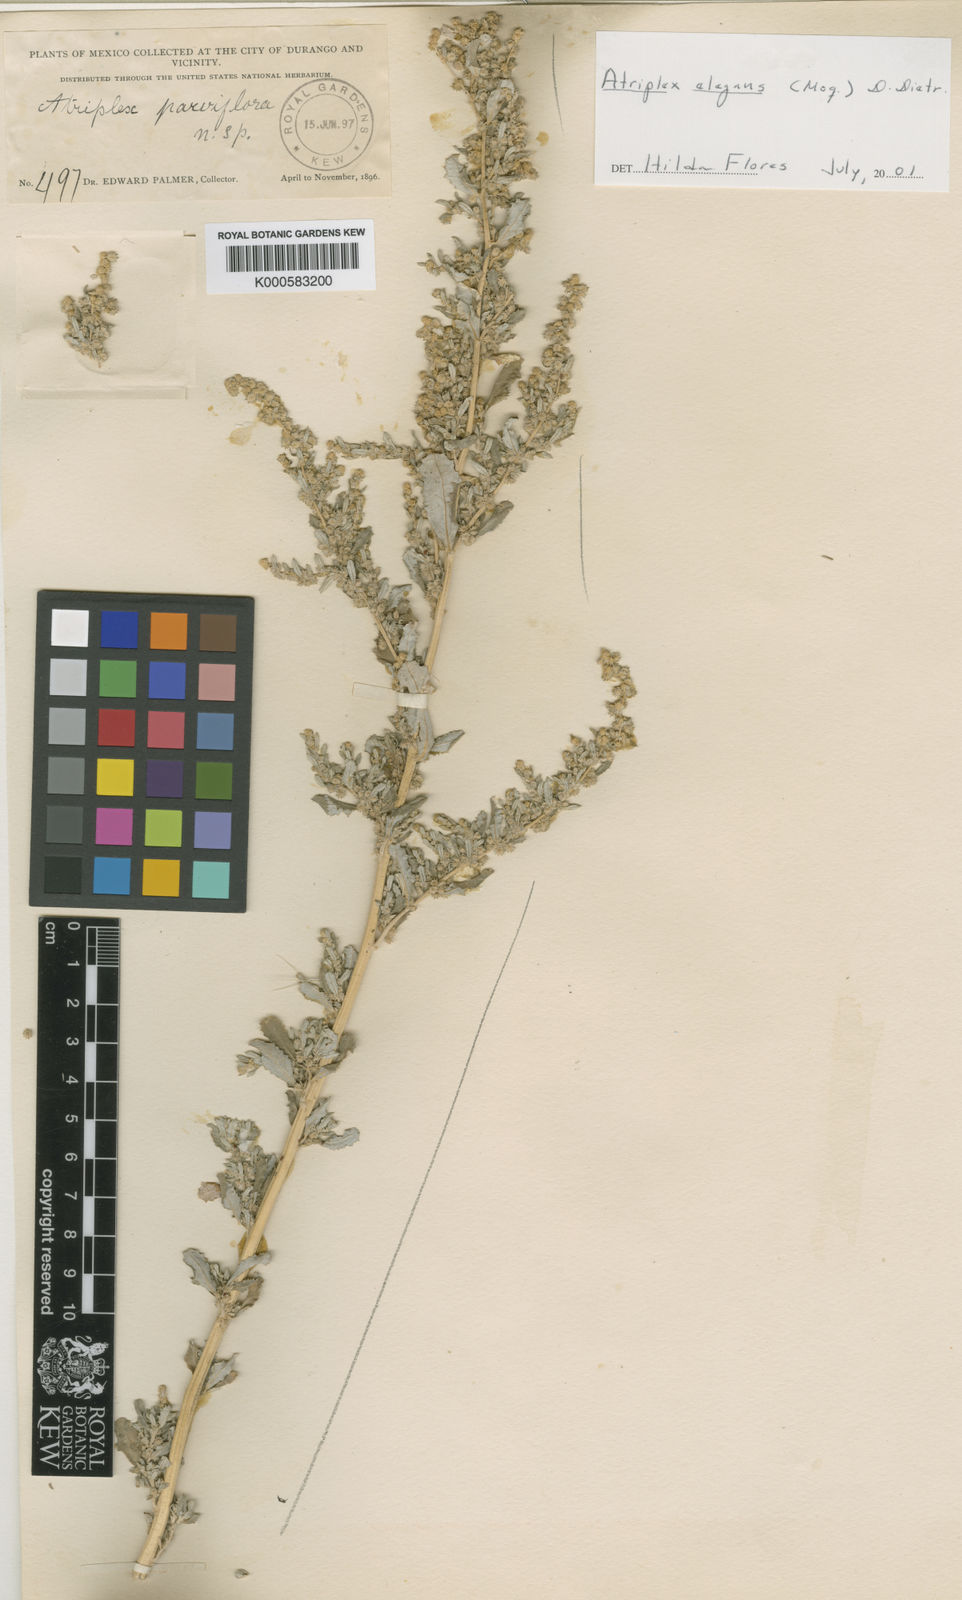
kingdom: Plantae
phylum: Tracheophyta
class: Magnoliopsida
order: Caryophyllales
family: Amaranthaceae
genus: Atriplex
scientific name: Atriplex
